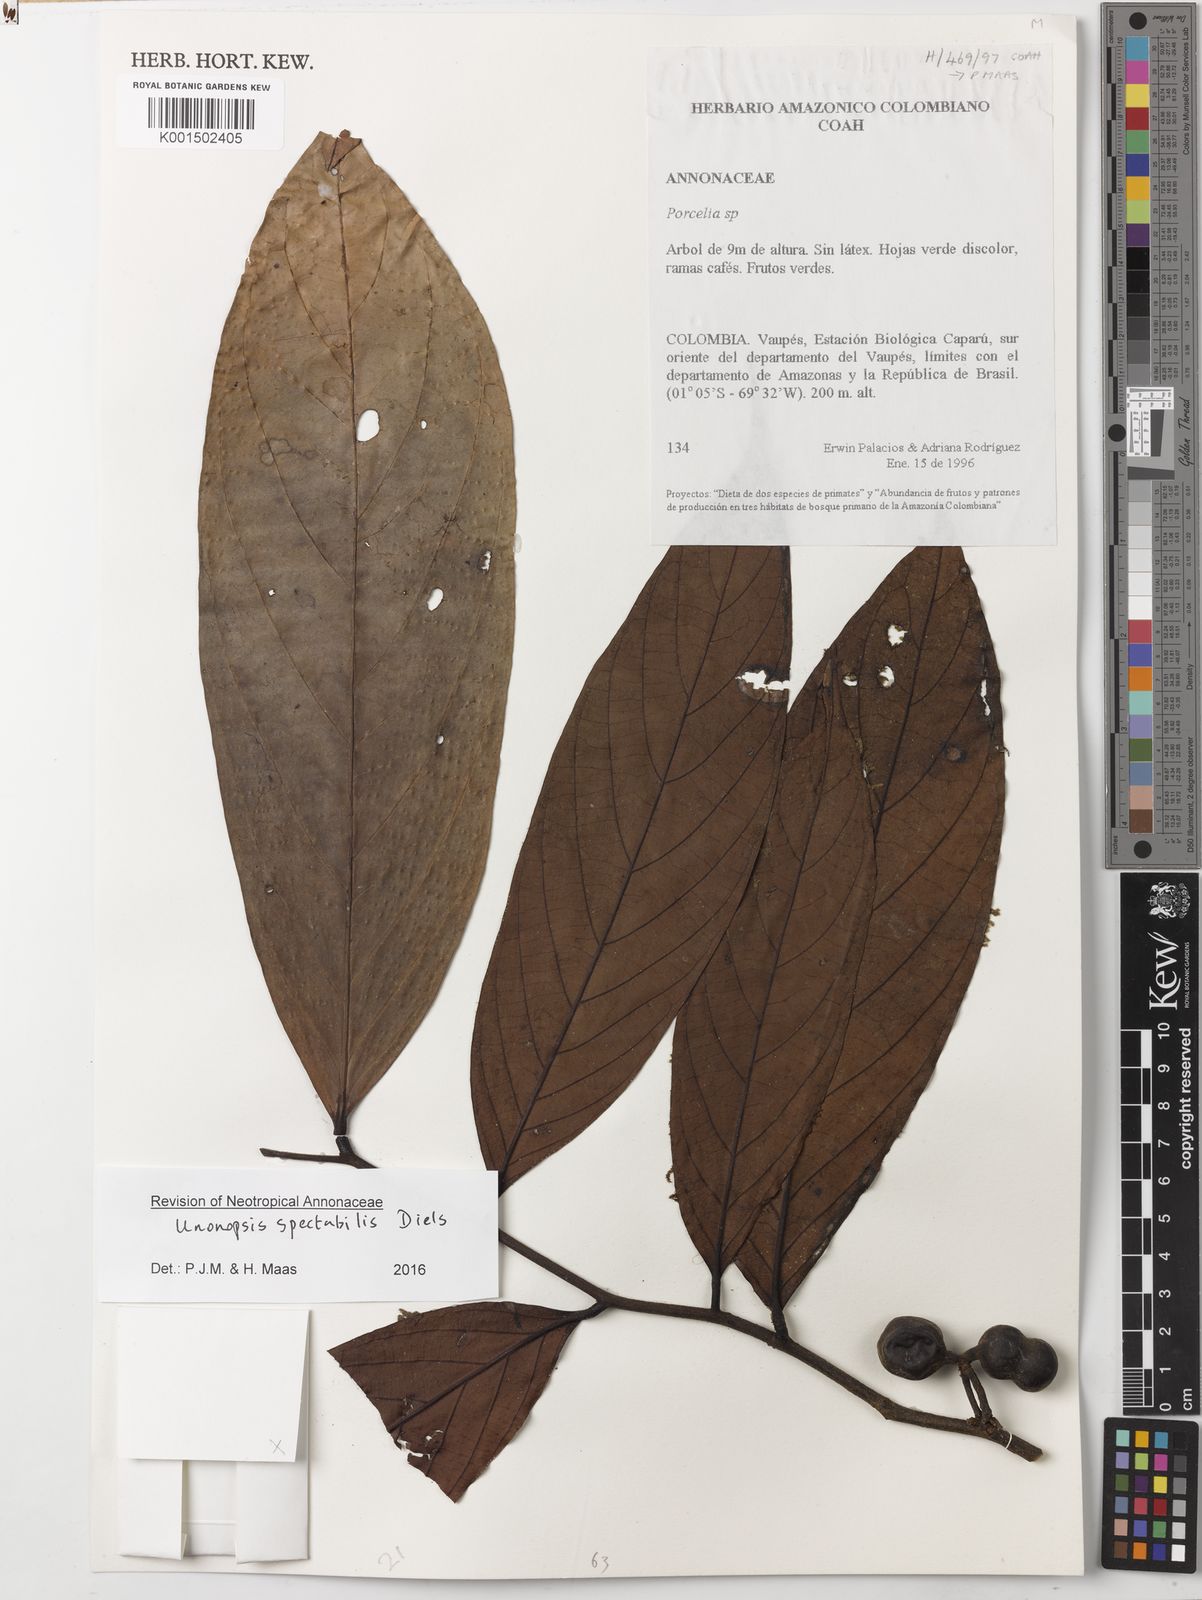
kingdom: Plantae
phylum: Tracheophyta
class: Magnoliopsida
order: Magnoliales
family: Annonaceae
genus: Unonopsis
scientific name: Unonopsis spectabilis
